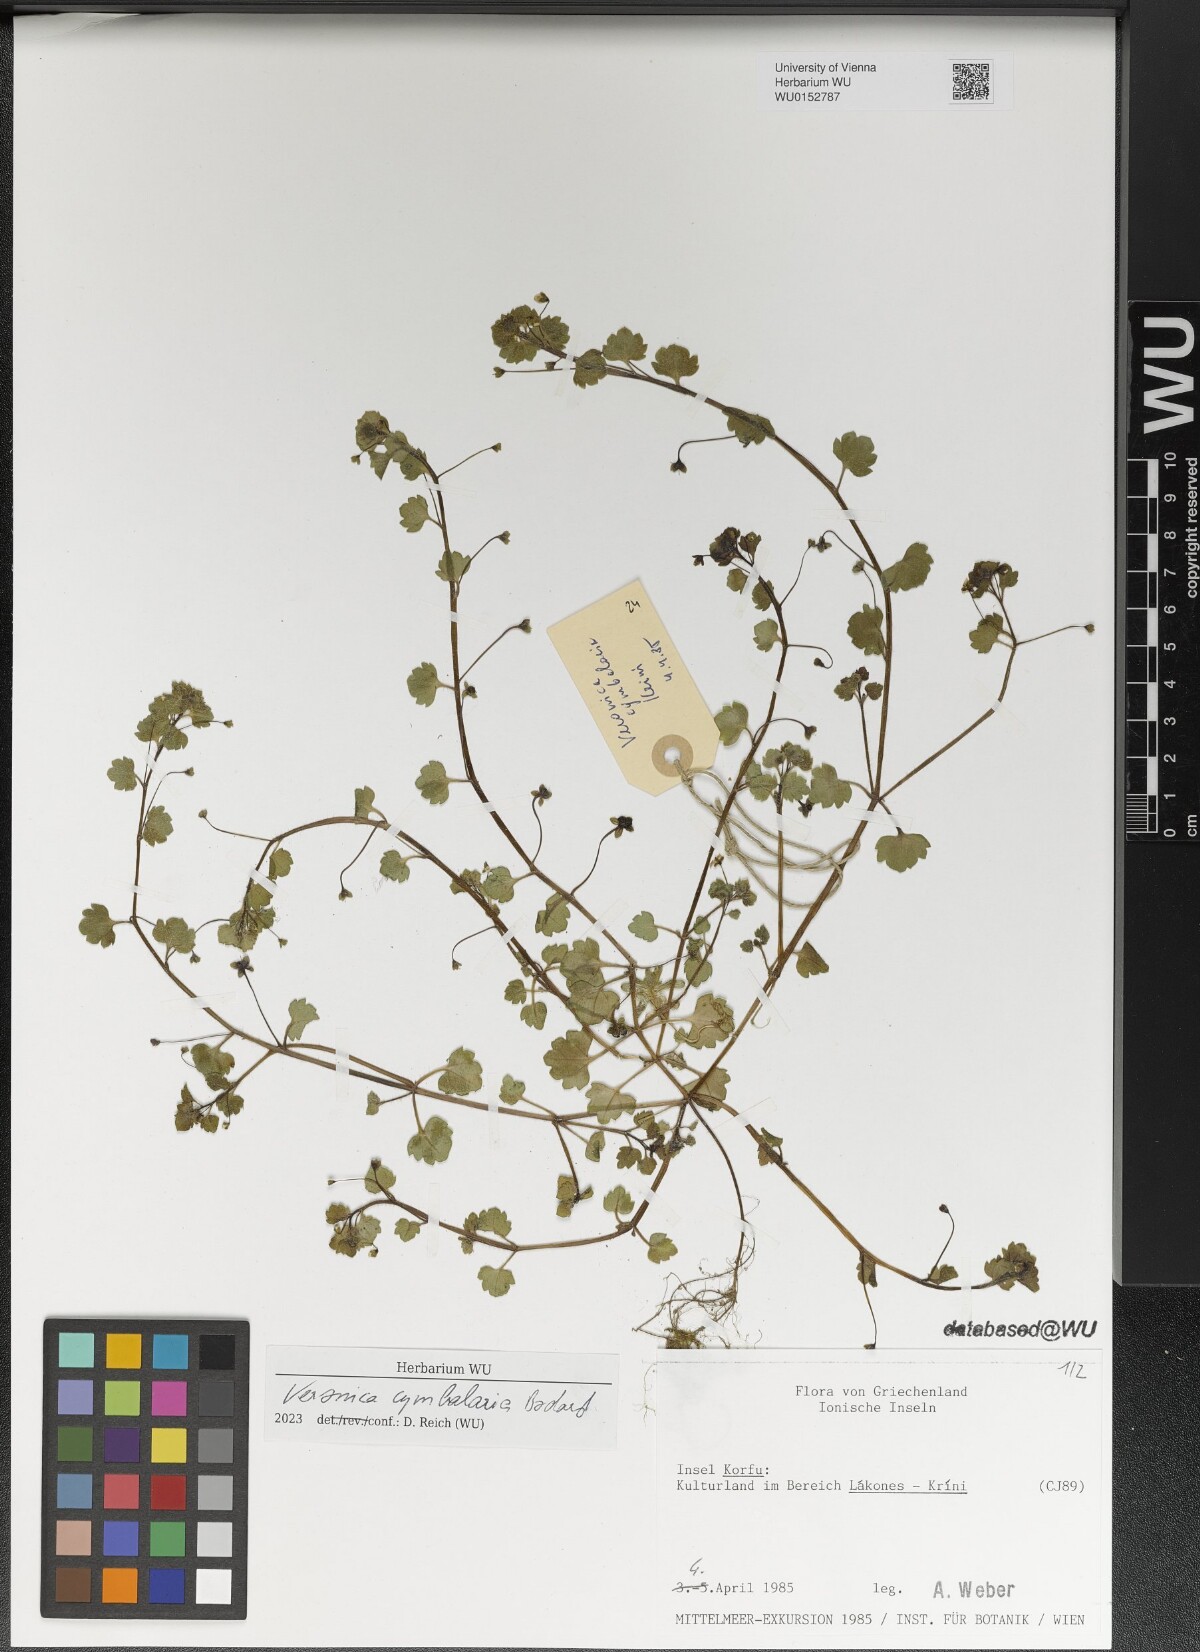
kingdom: Plantae
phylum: Tracheophyta
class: Magnoliopsida
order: Lamiales
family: Plantaginaceae
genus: Veronica
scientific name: Veronica cymbalaria
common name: Pale speedwell
